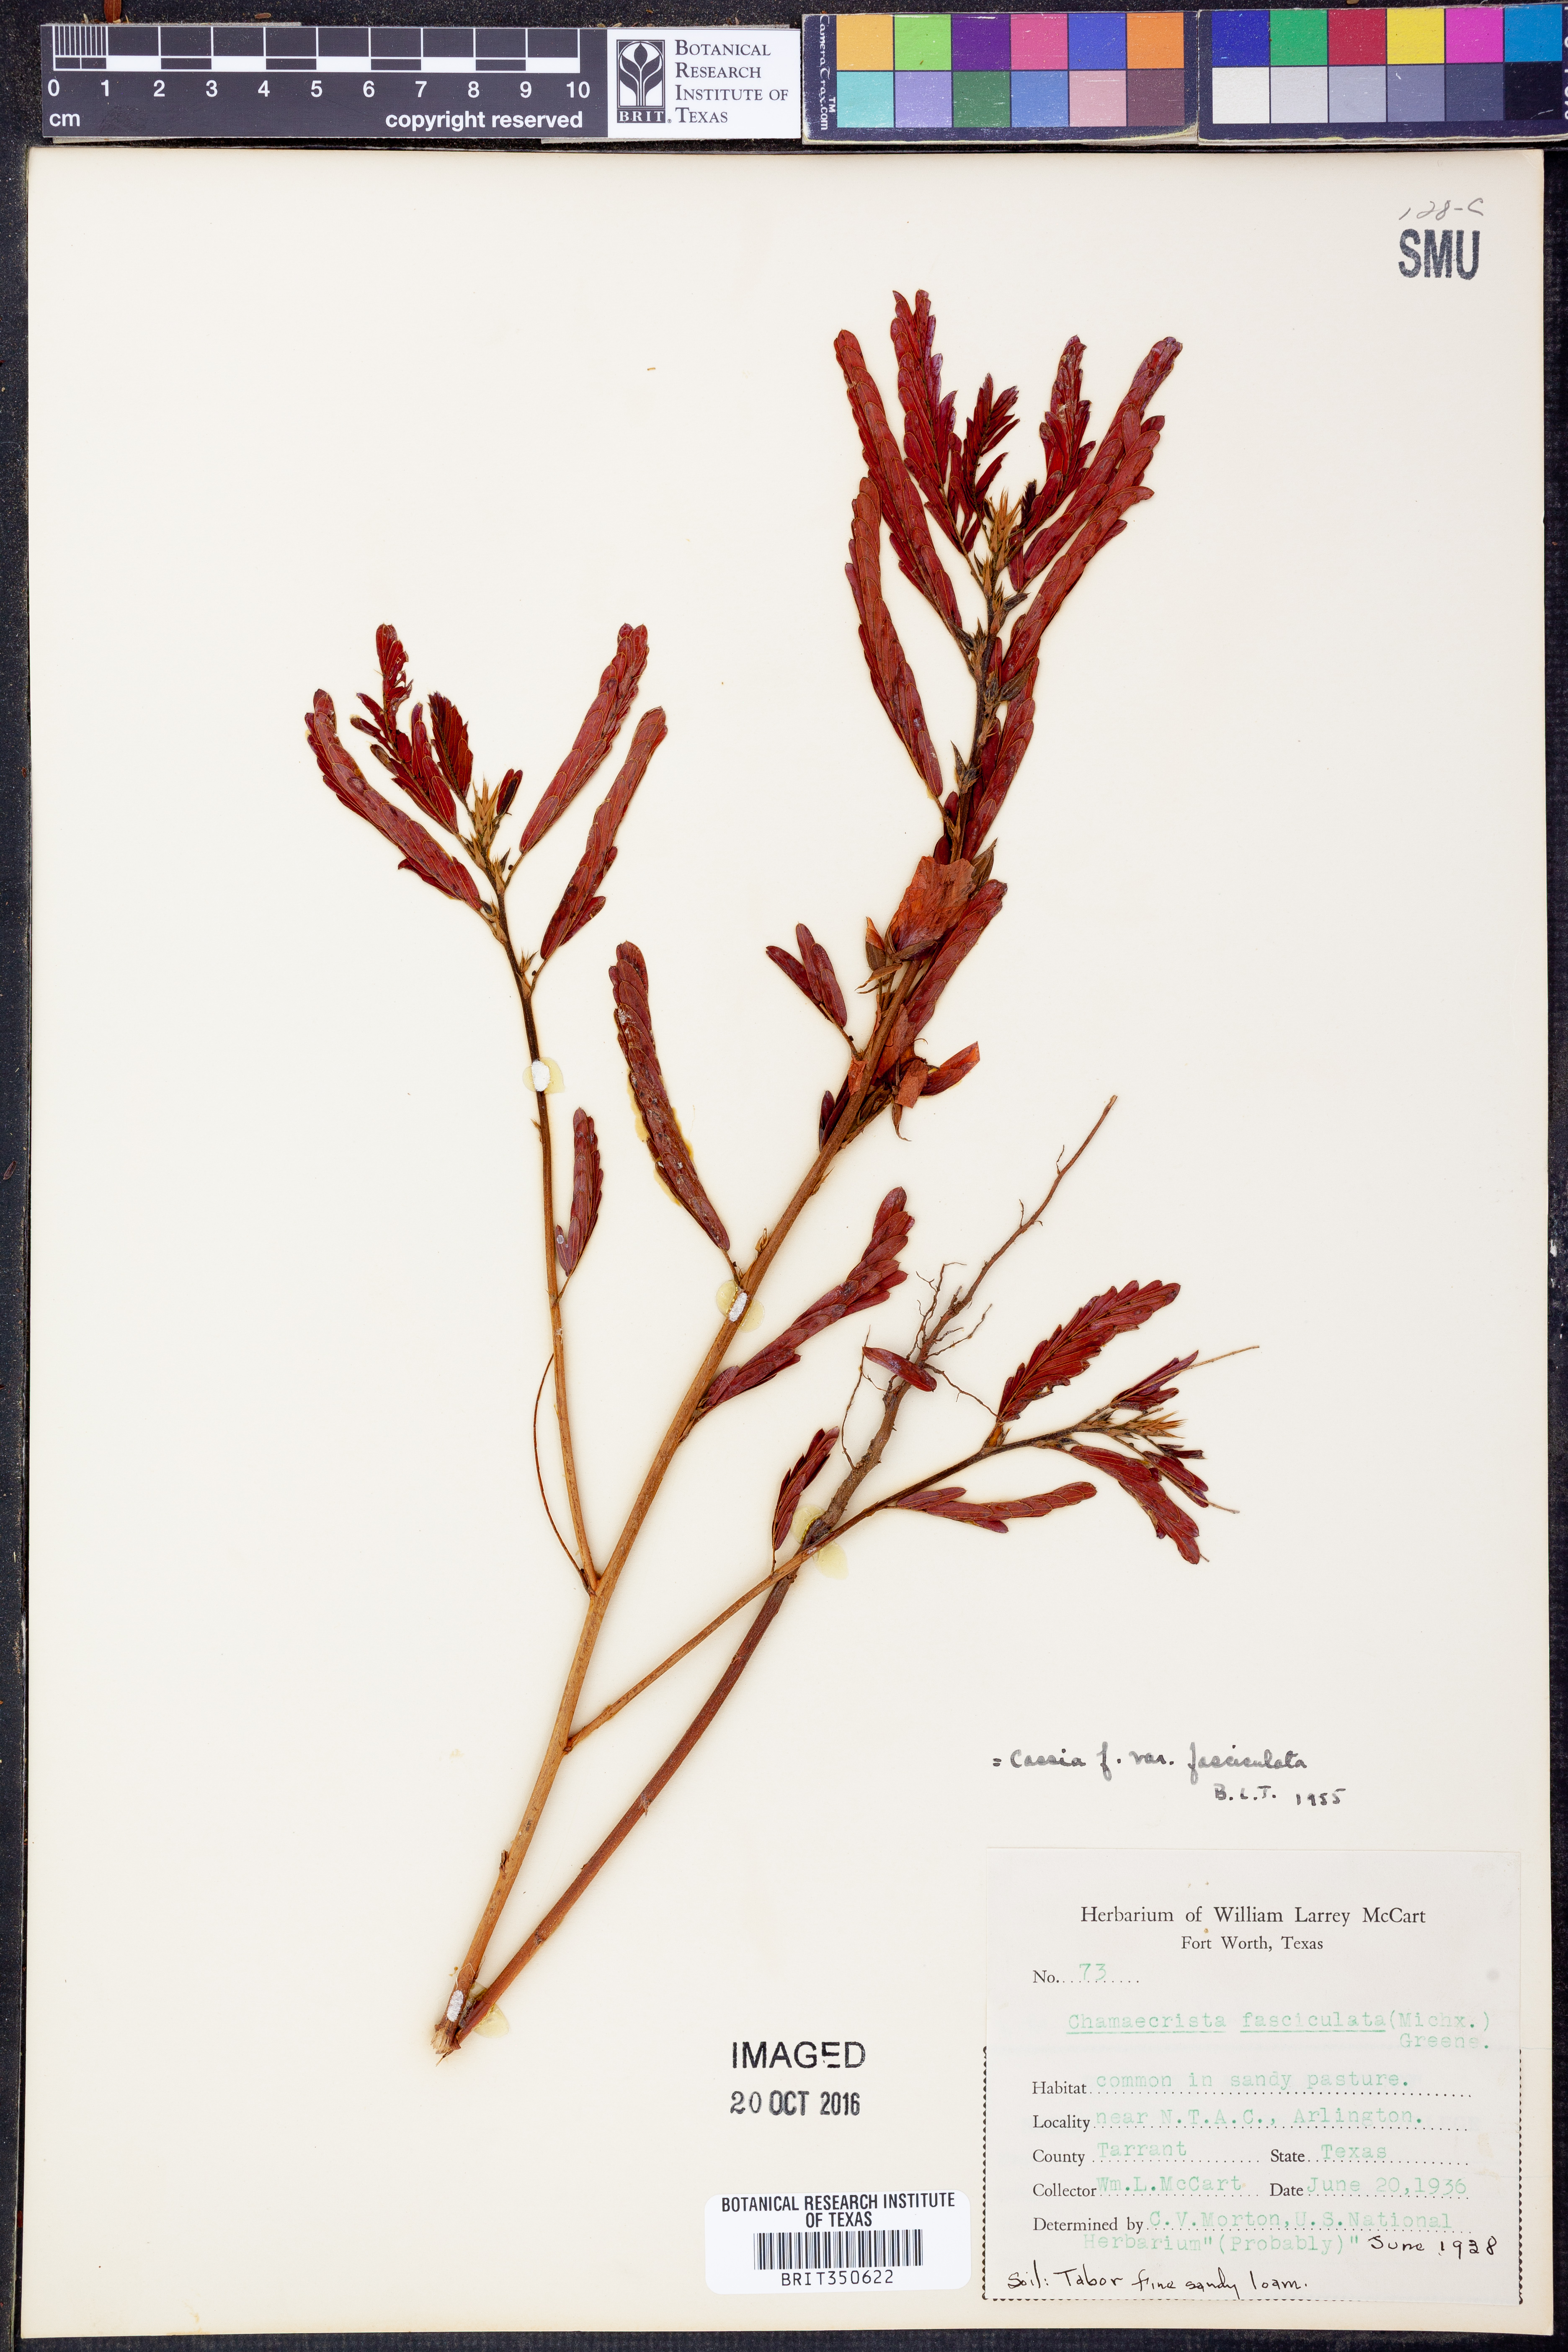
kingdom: Plantae
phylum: Tracheophyta
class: Magnoliopsida
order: Fabales
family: Fabaceae
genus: Chamaecrista
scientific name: Chamaecrista fasciculata
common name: Golden cassia
